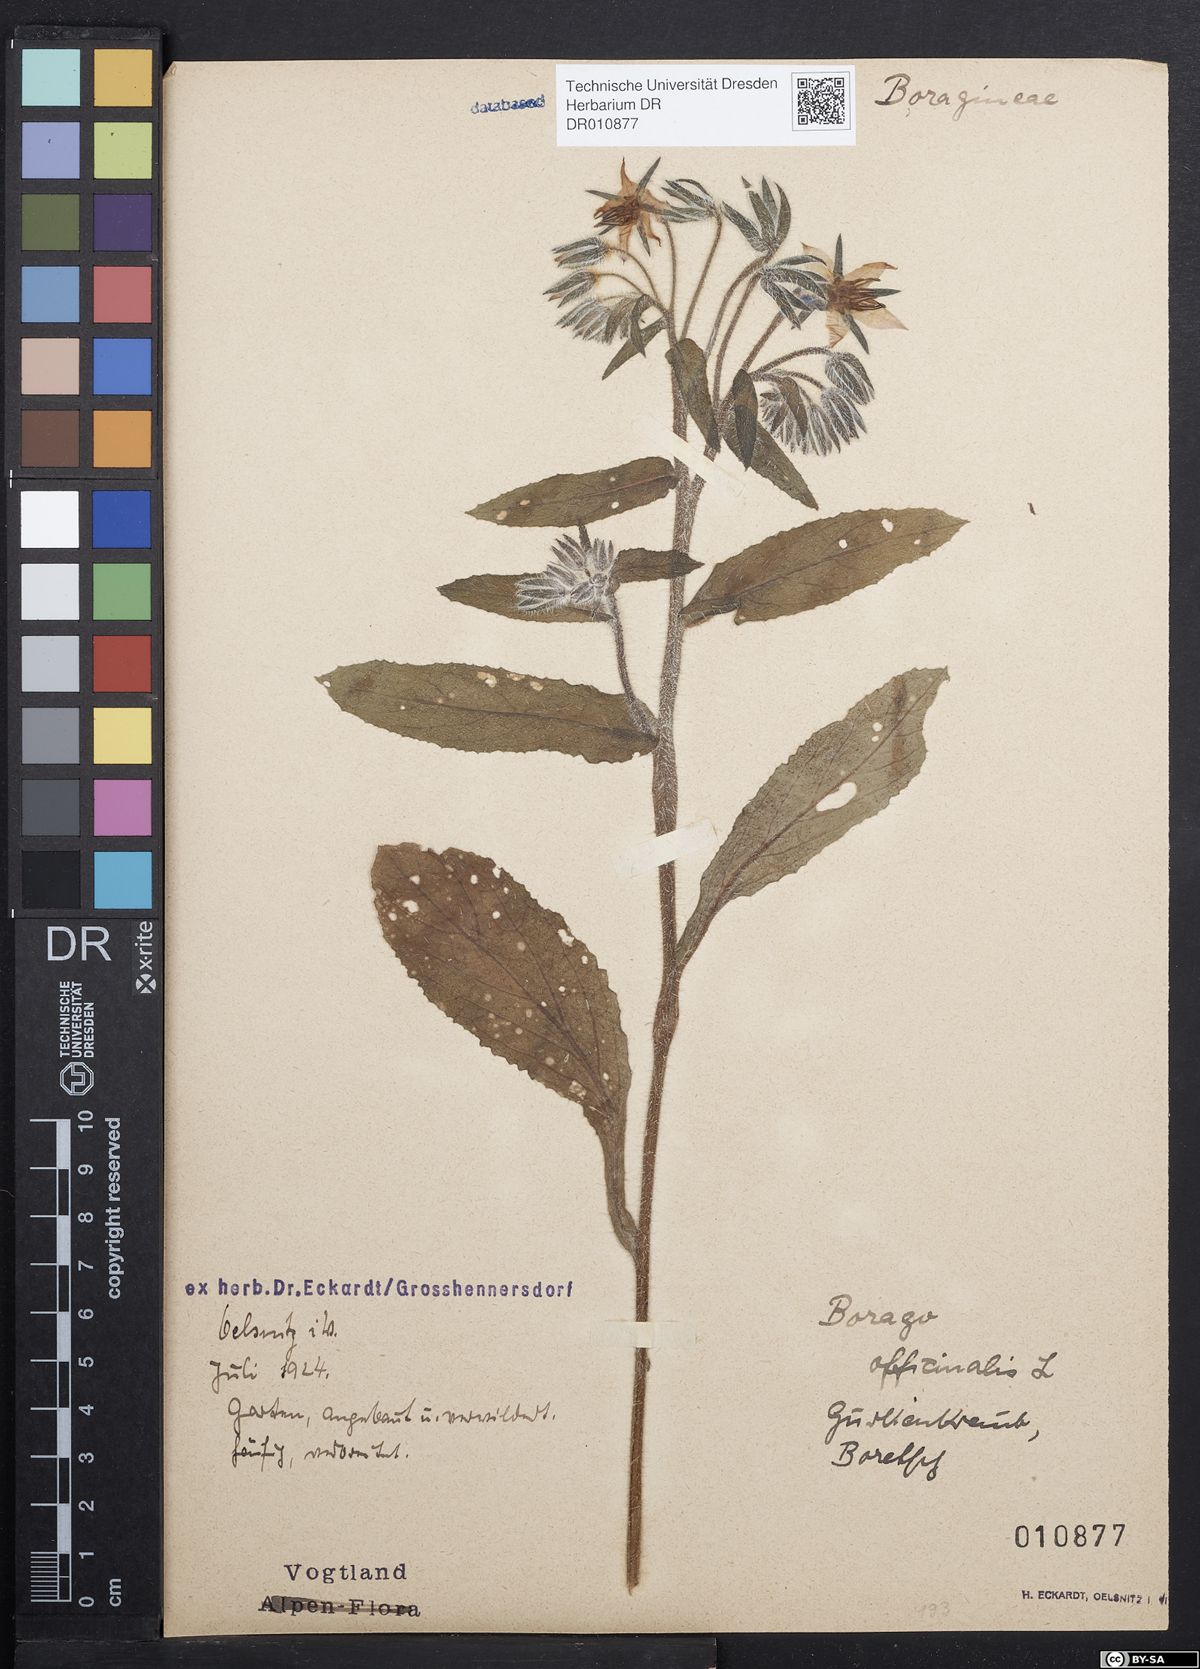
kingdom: Plantae
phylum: Tracheophyta
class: Magnoliopsida
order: Boraginales
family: Boraginaceae
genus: Borago
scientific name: Borago officinalis
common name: Borage
